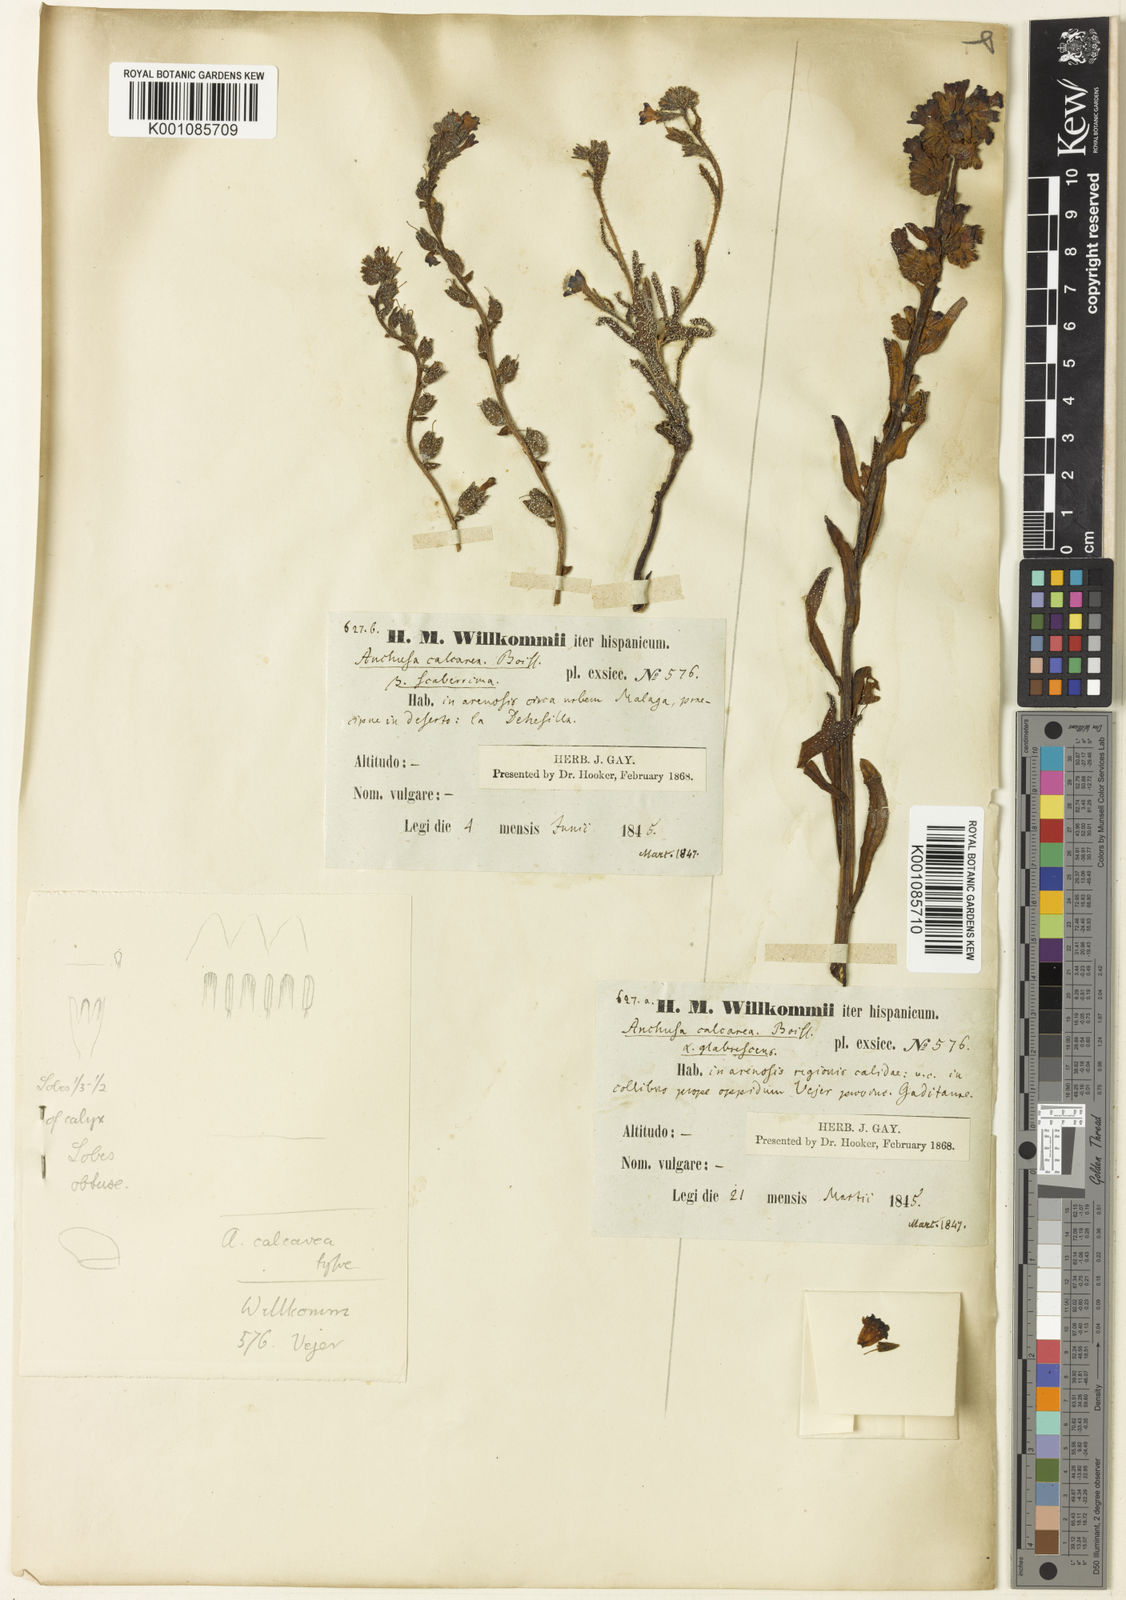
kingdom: Plantae
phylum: Tracheophyta
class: Magnoliopsida
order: Boraginales
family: Boraginaceae
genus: Anchusa
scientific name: Anchusa calcarea
